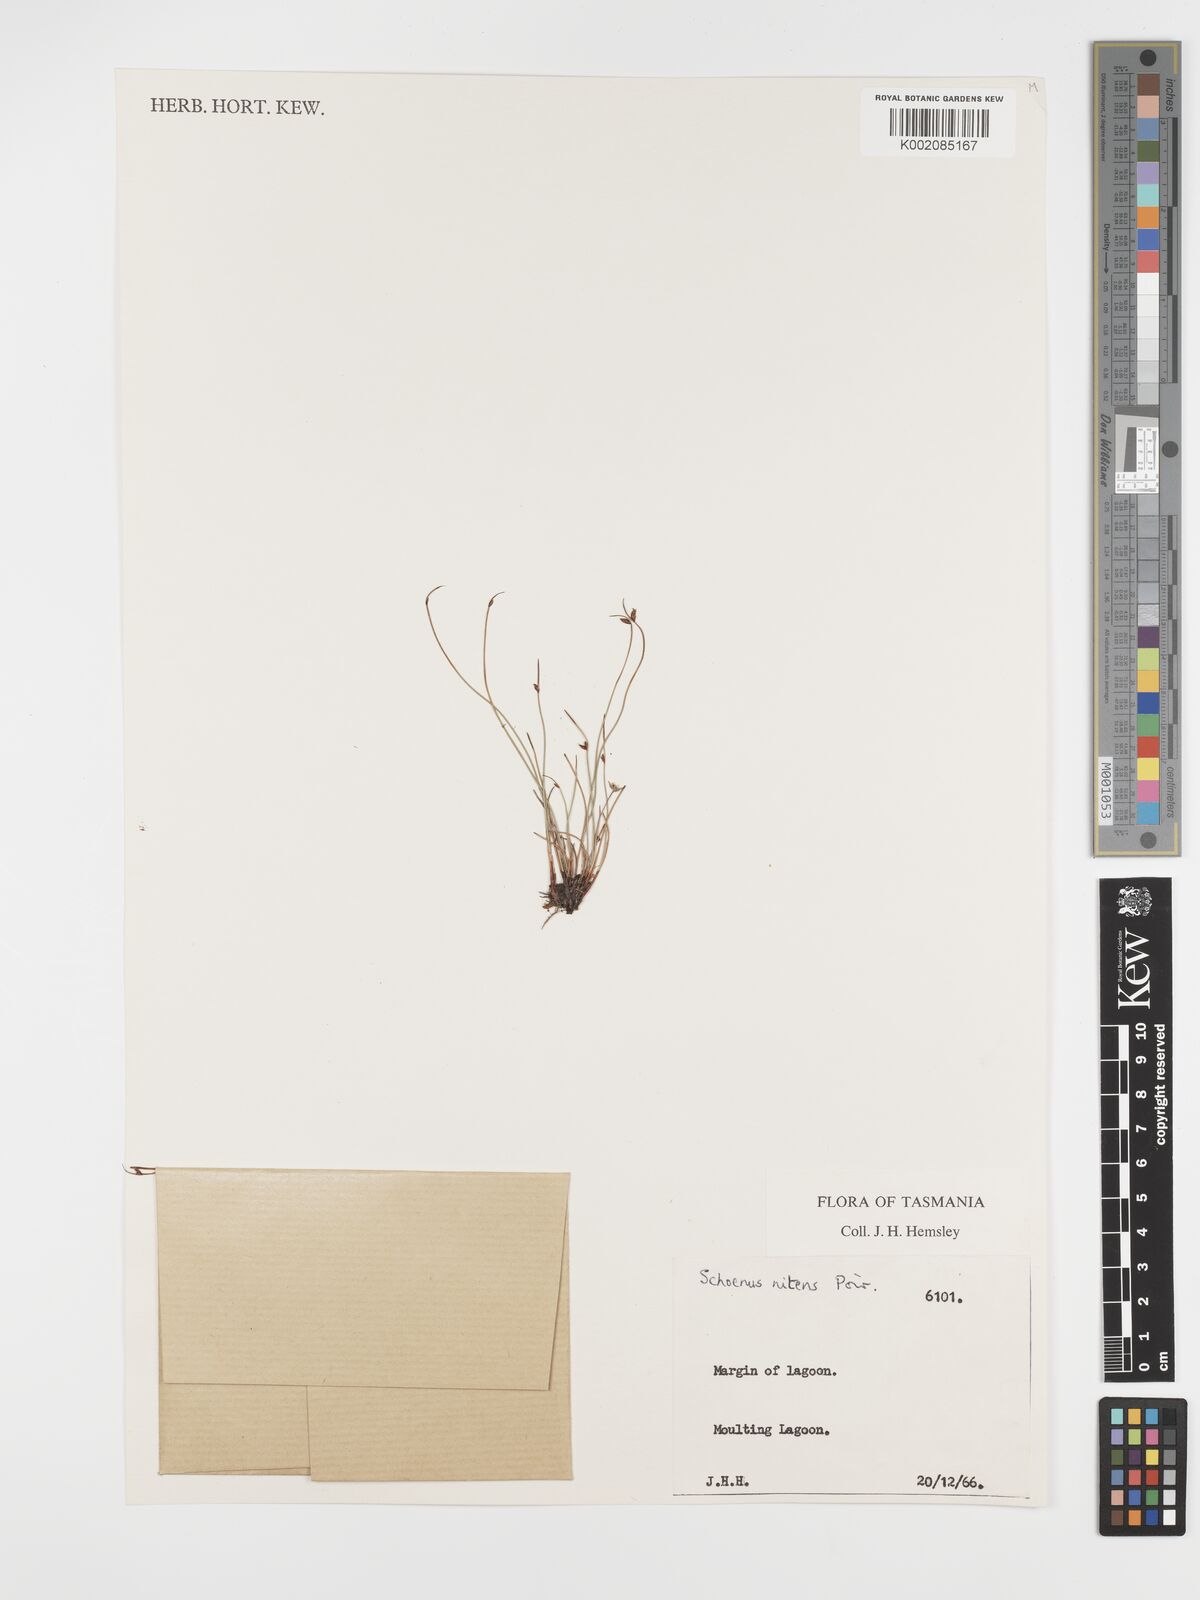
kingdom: Plantae
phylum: Tracheophyta
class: Liliopsida
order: Poales
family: Cyperaceae
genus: Schoenus
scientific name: Schoenus nitens
